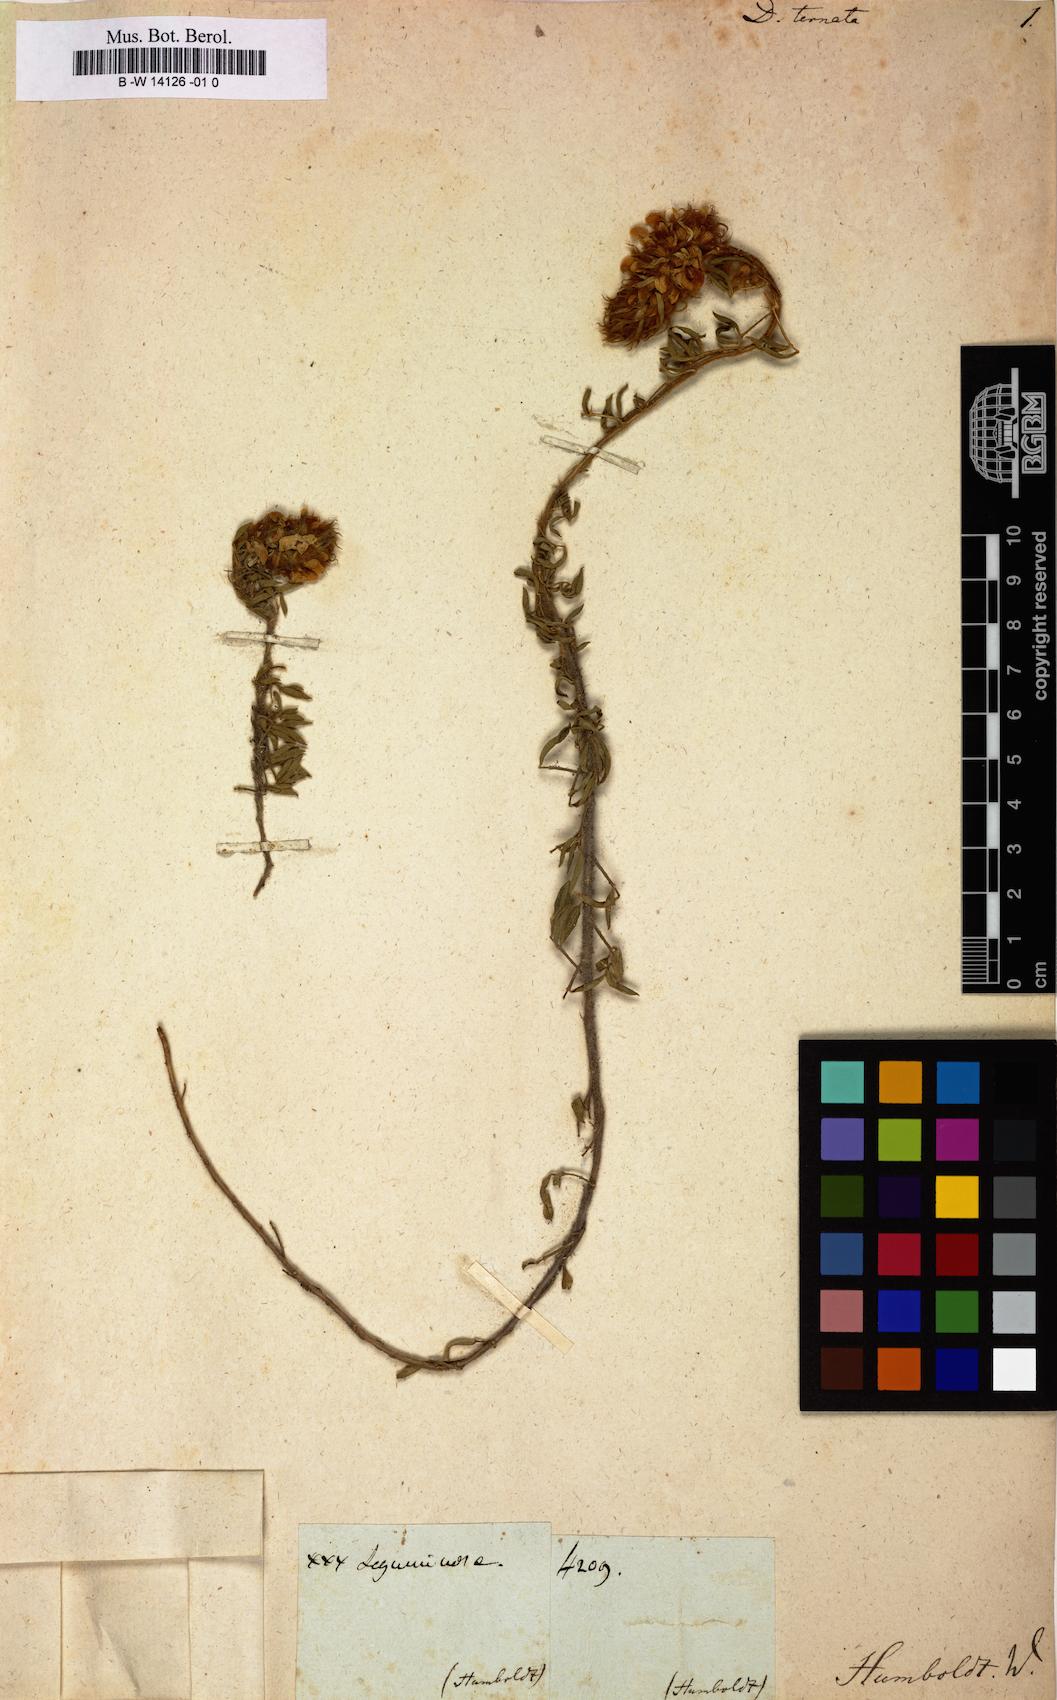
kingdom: Plantae
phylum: Tracheophyta
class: Magnoliopsida
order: Fabales
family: Fabaceae
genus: Dalea
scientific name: Dalea luisana
